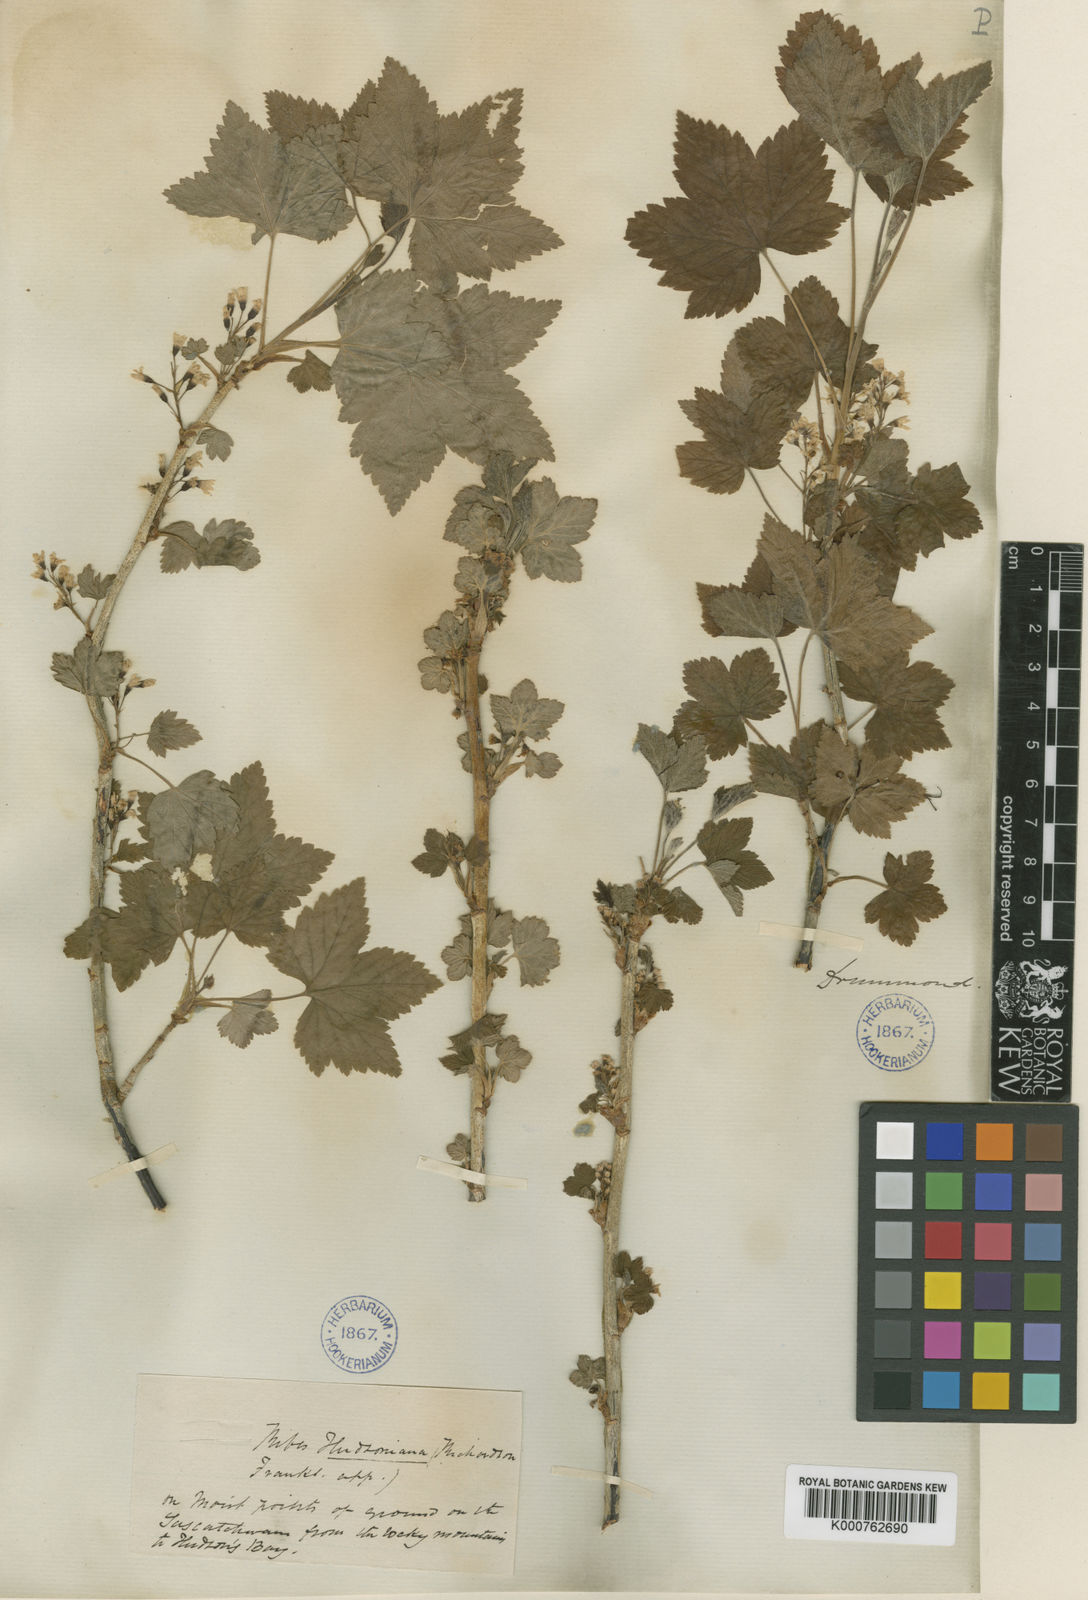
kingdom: Plantae
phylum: Tracheophyta
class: Magnoliopsida
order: Saxifragales
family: Grossulariaceae
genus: Ribes
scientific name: Ribes hudsonianum
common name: Northern black currant
